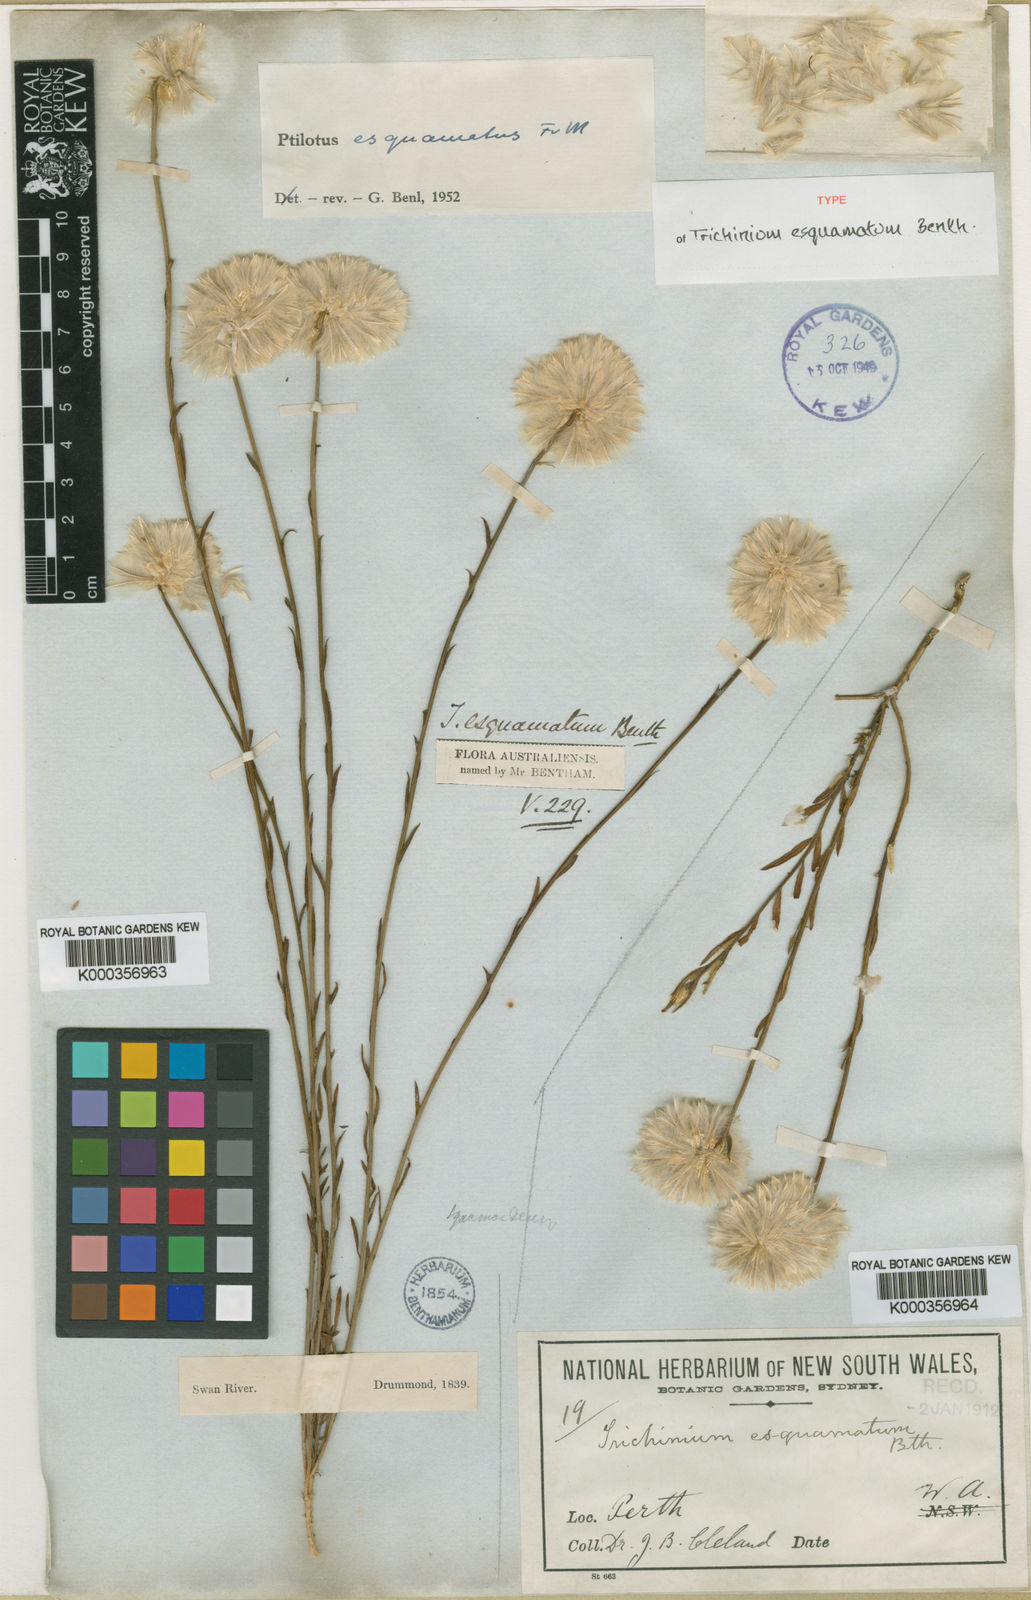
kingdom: Plantae
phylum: Tracheophyta
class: Magnoliopsida
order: Caryophyllales
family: Amaranthaceae
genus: Ptilotus
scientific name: Ptilotus esquamatus
